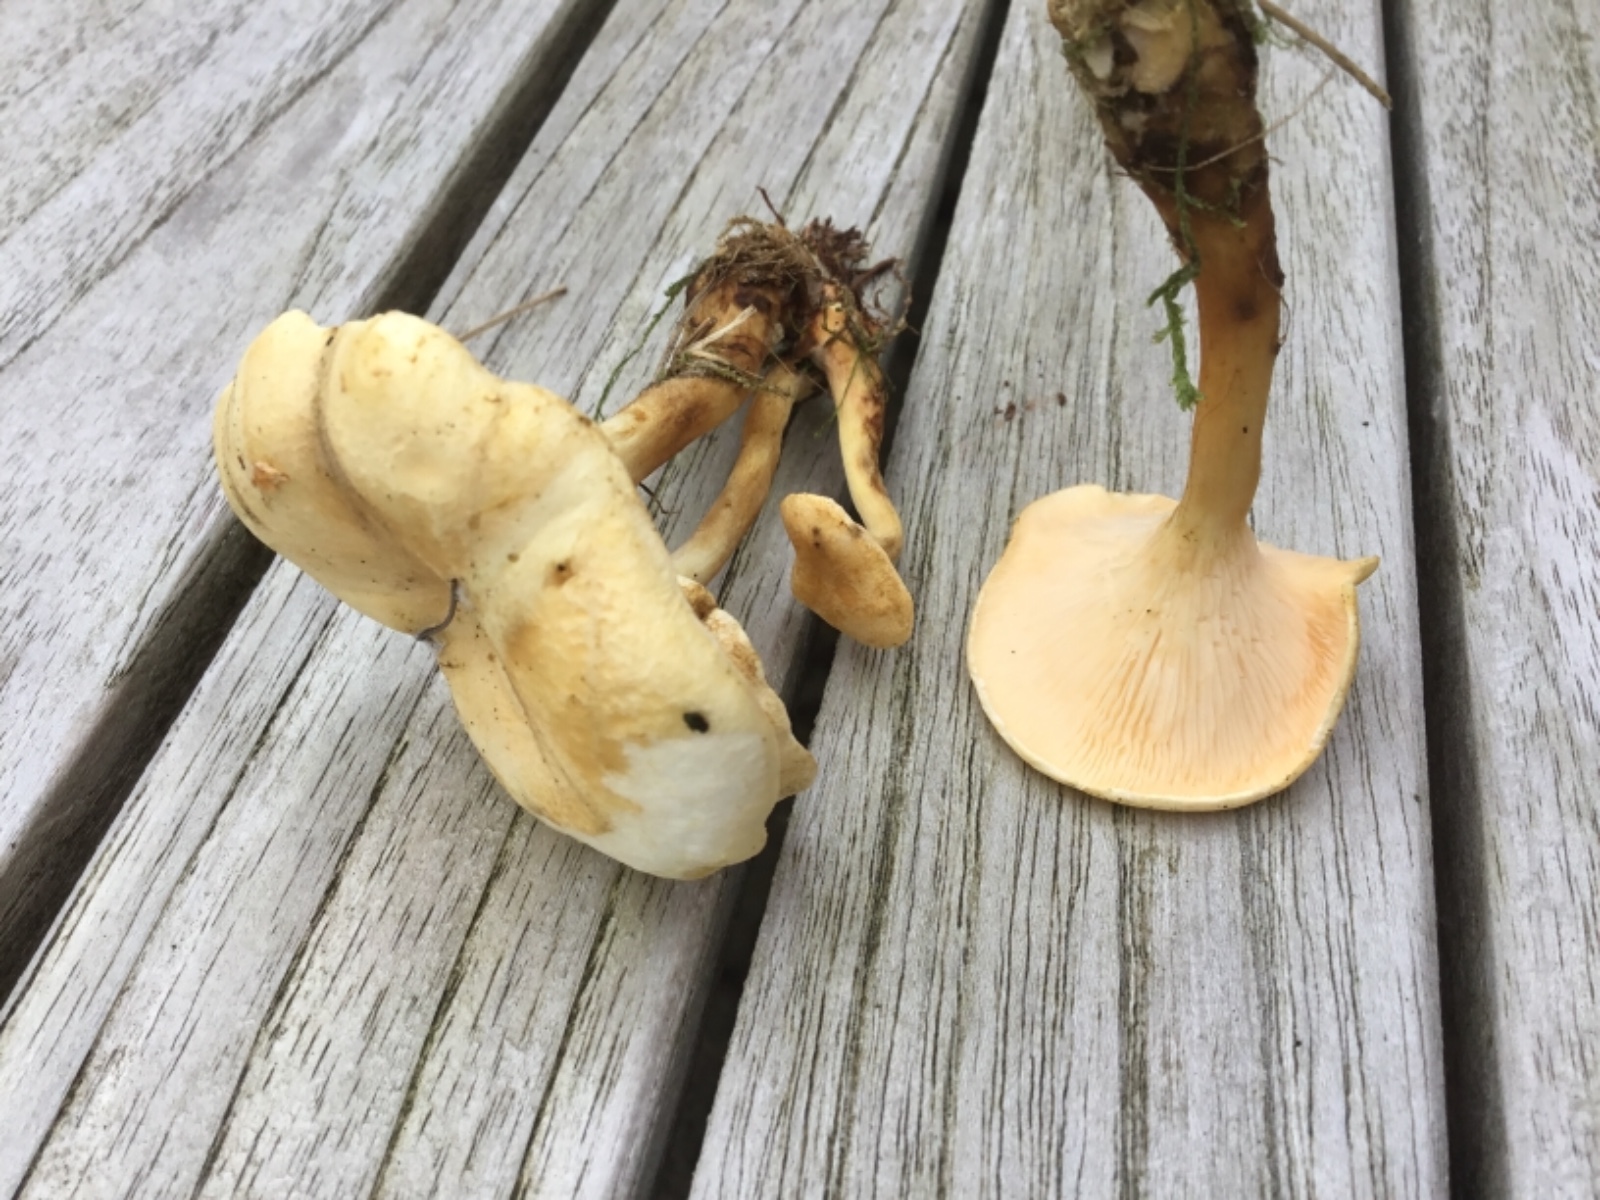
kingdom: Fungi
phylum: Basidiomycota
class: Agaricomycetes
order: Boletales
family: Hygrophoropsidaceae
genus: Hygrophoropsis
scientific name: Hygrophoropsis
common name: orangekantarel
